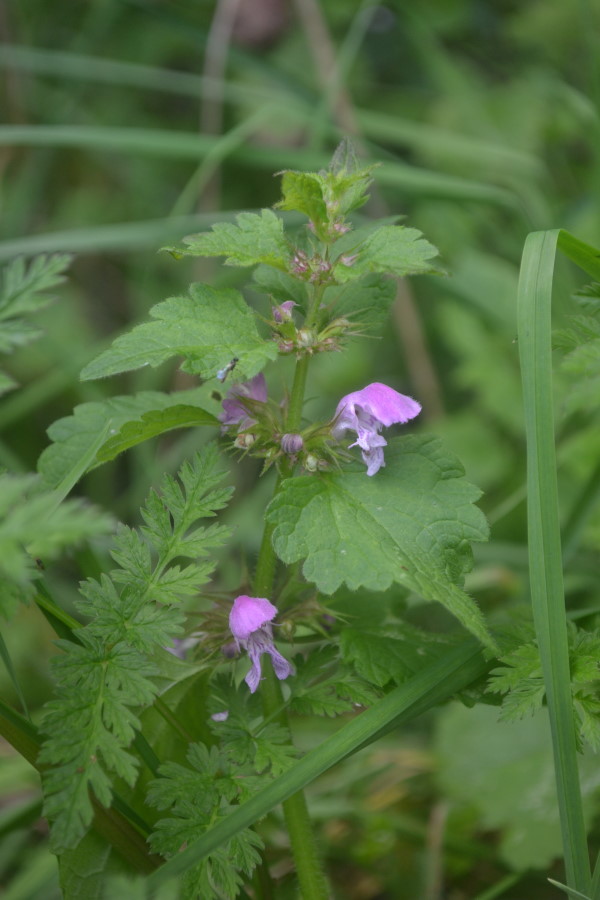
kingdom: Plantae
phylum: Tracheophyta
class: Magnoliopsida
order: Lamiales
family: Lamiaceae
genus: Lamium
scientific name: Lamium maculatum
